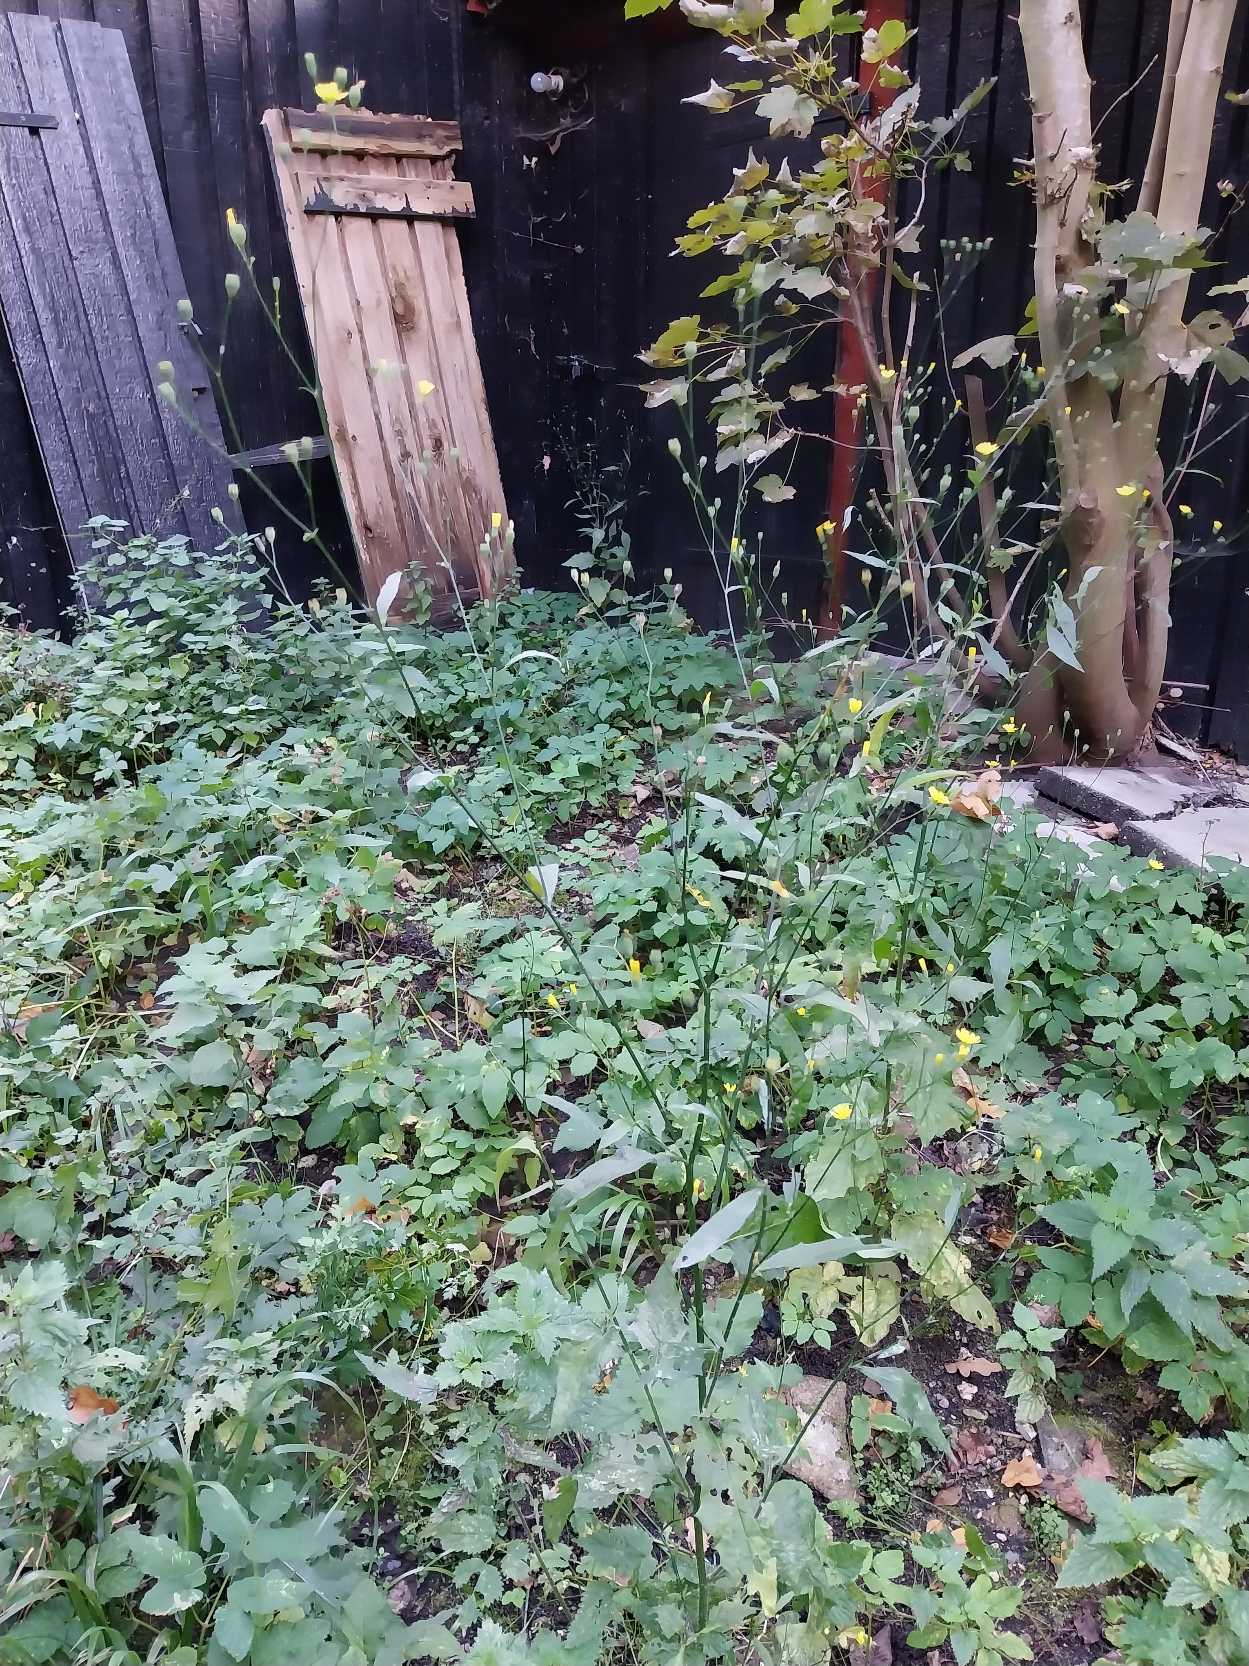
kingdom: Plantae
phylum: Tracheophyta
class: Magnoliopsida
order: Asterales
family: Asteraceae
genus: Lapsana
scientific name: Lapsana communis
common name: Haremad
